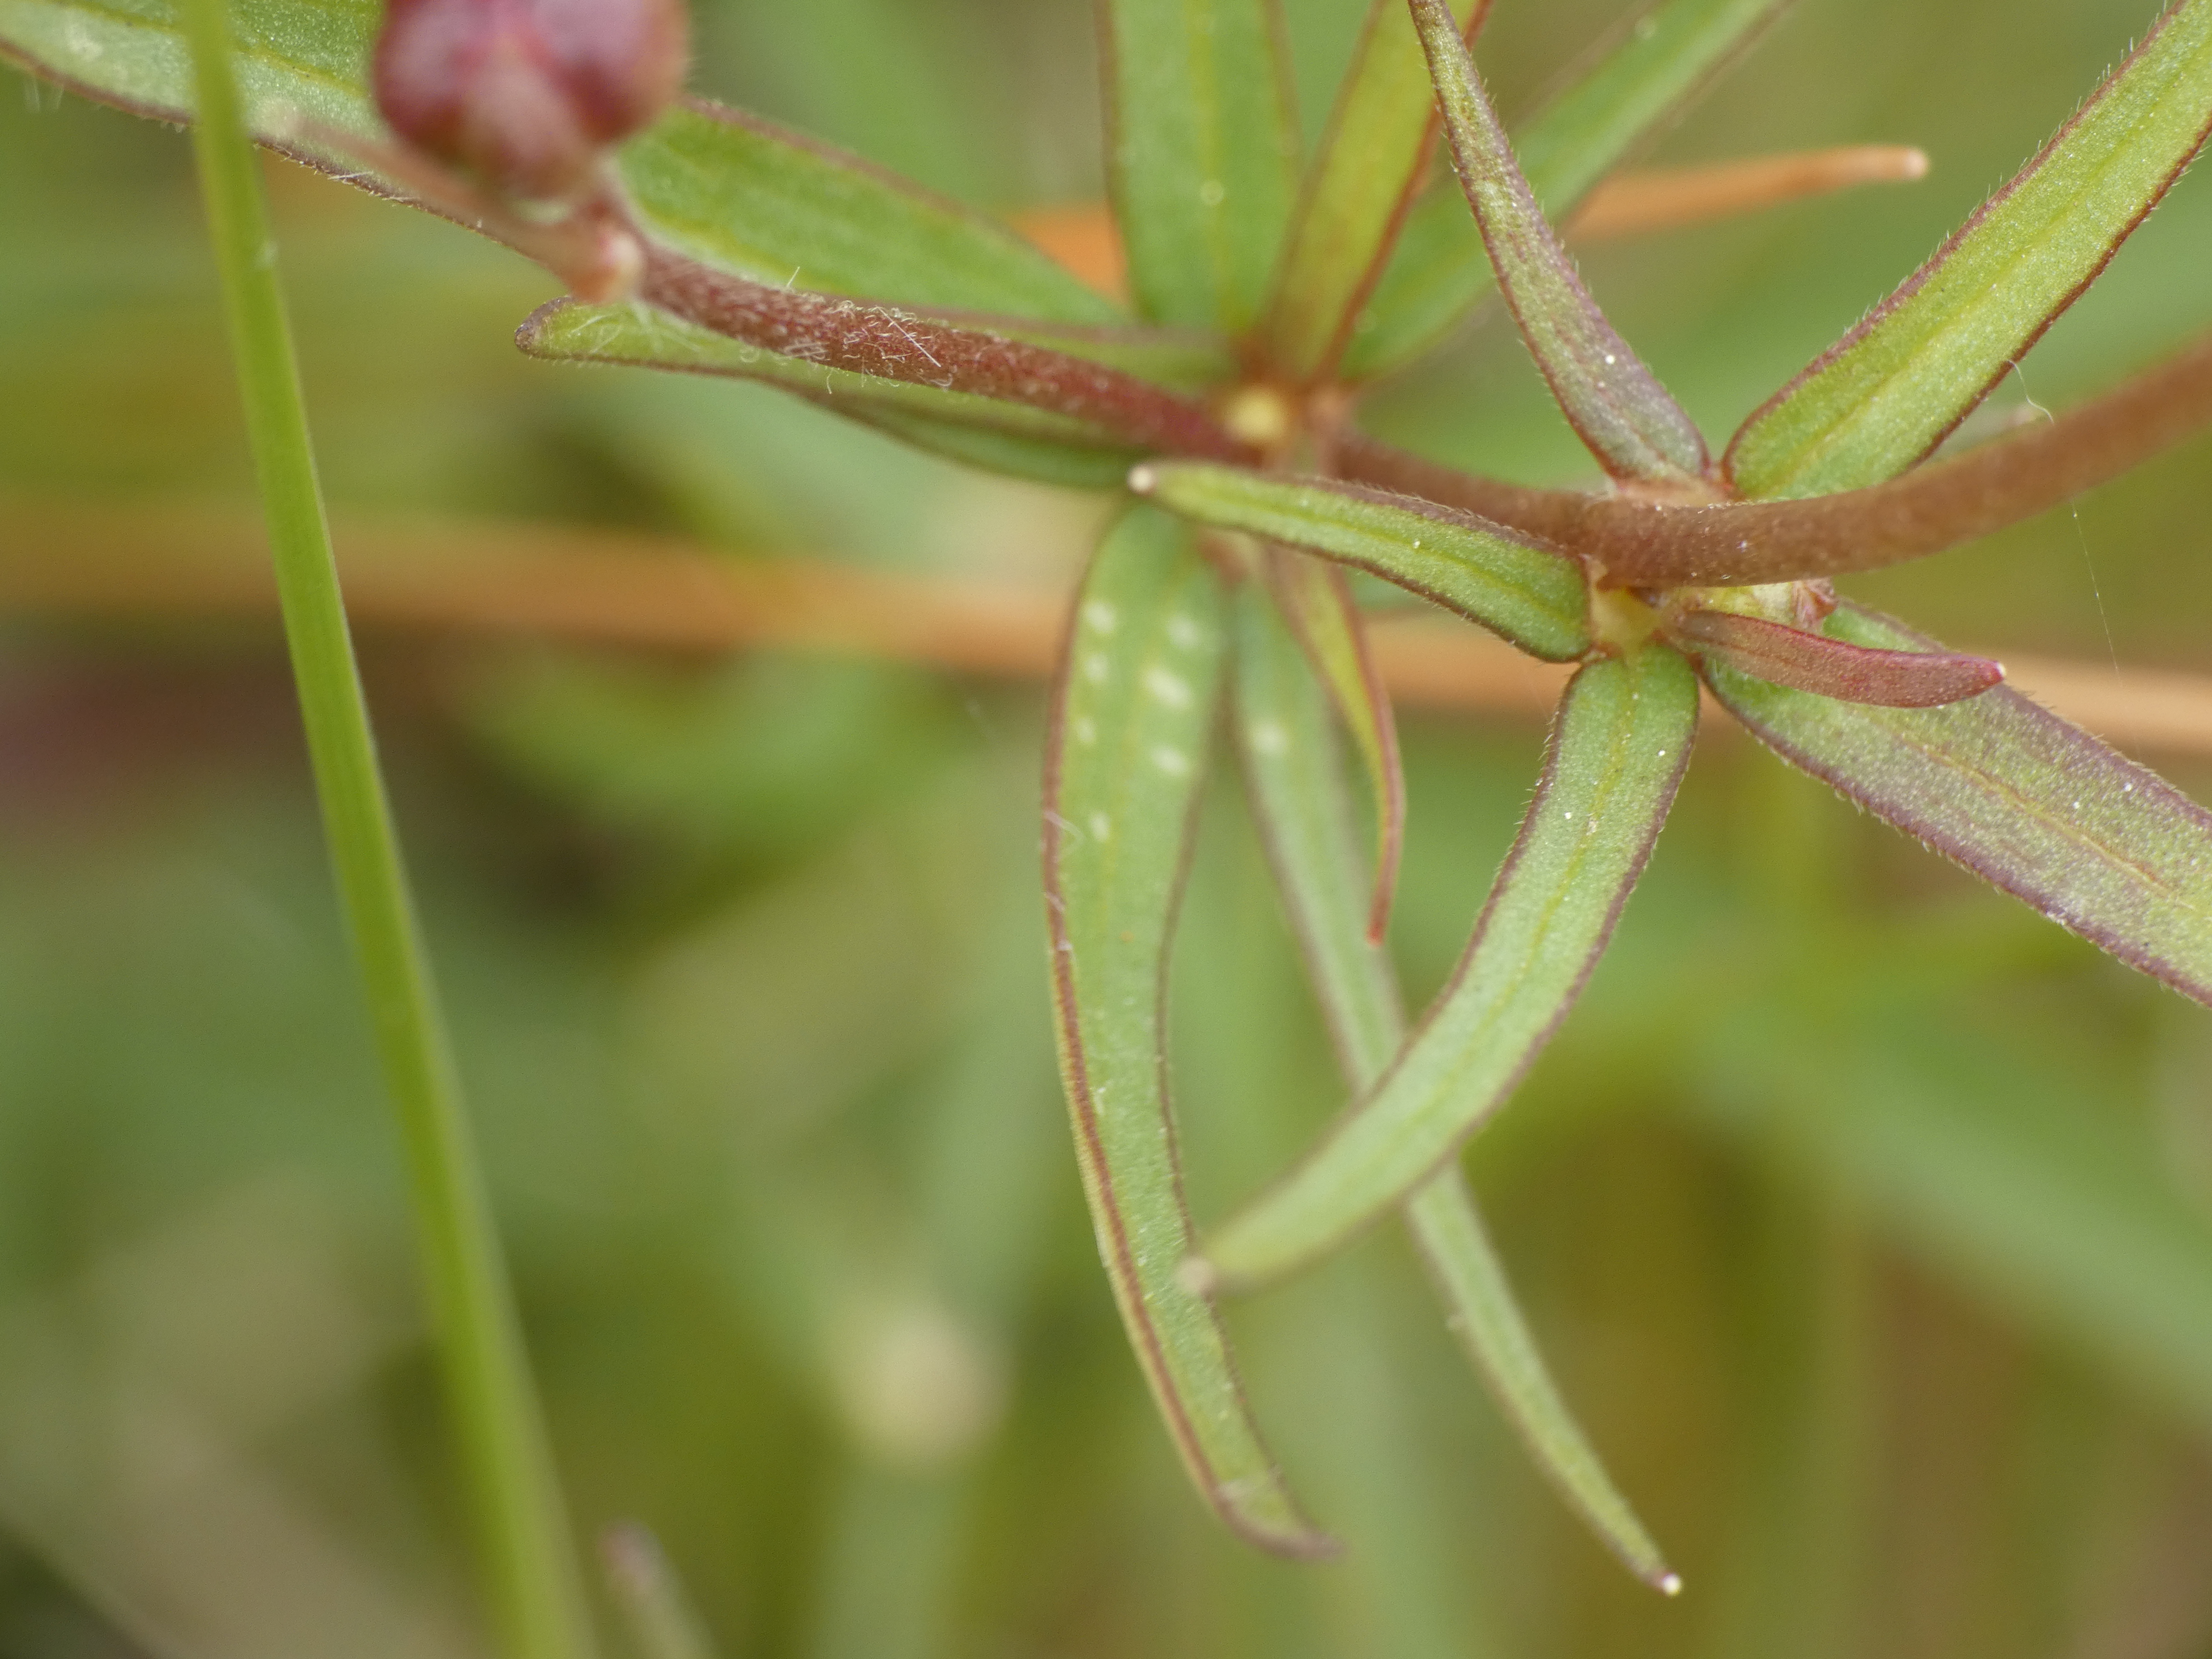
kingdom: Plantae
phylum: Tracheophyta
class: Magnoliopsida
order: Ranunculales
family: Ranunculaceae
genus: Ranunculus
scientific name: Ranunculus auricomus
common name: Nyrebladet ranunkel
